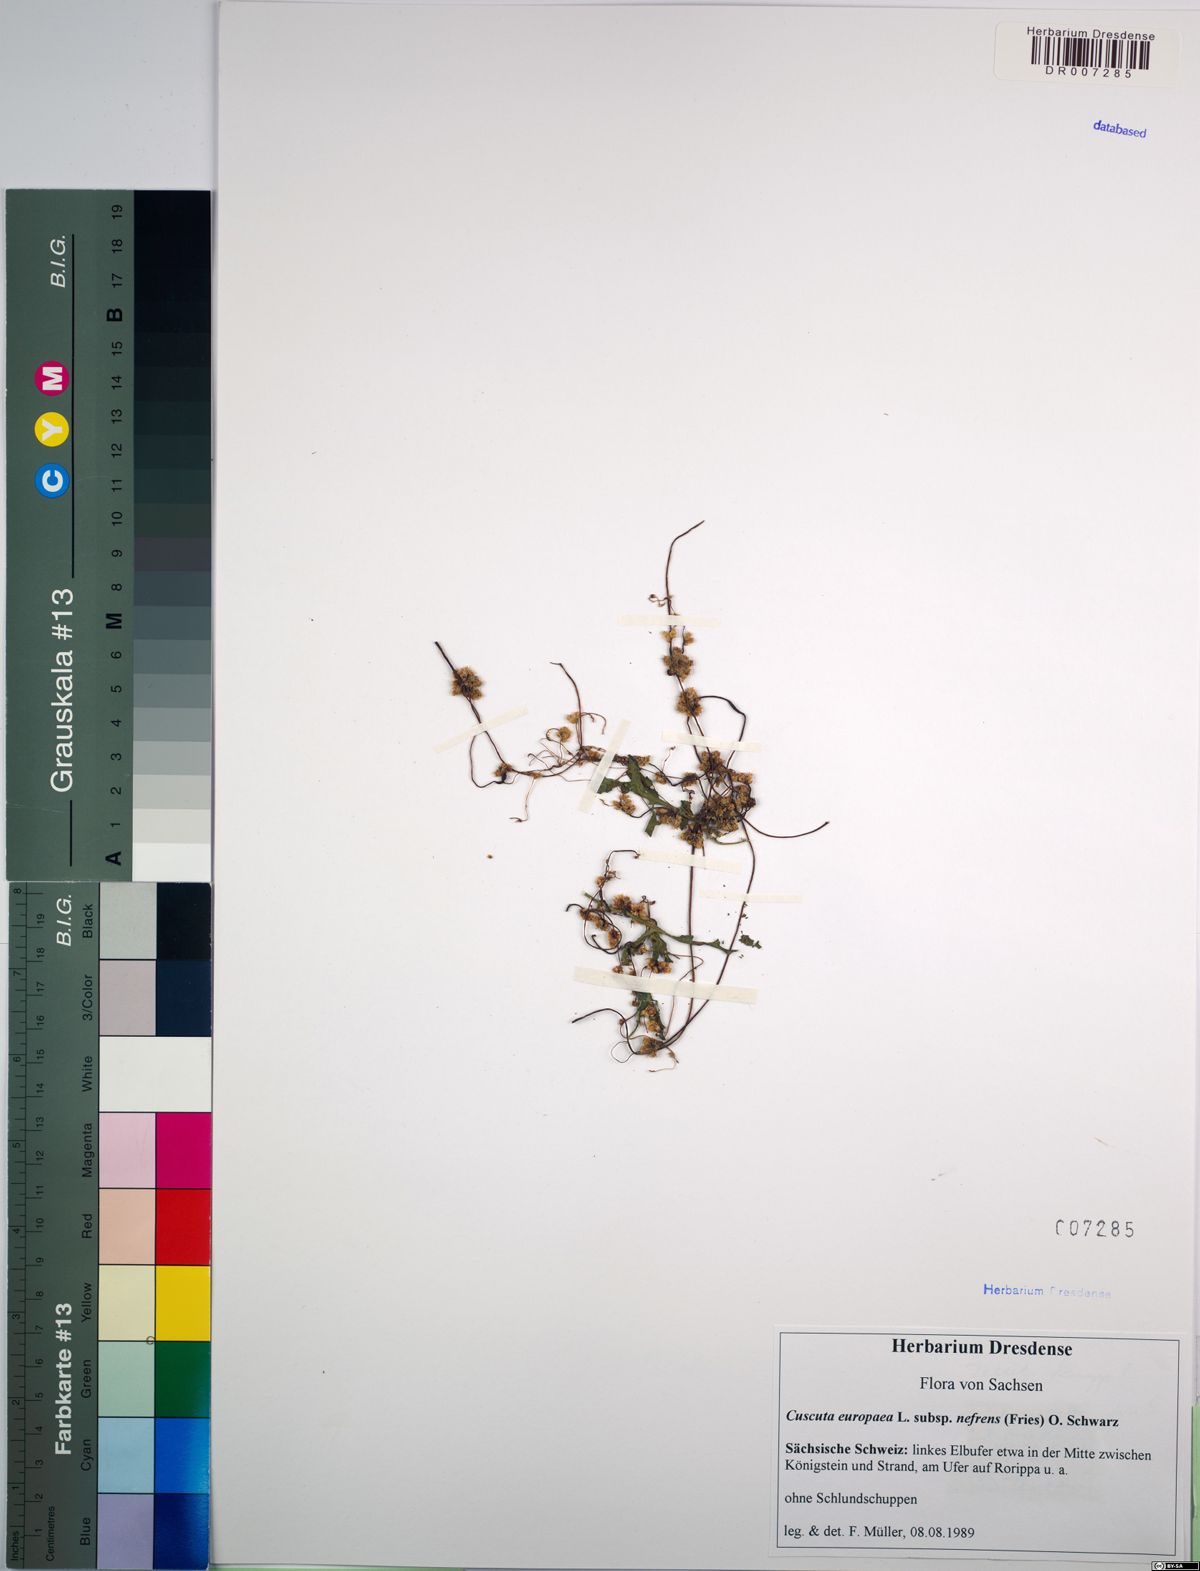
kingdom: Plantae
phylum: Tracheophyta
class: Magnoliopsida
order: Solanales
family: Convolvulaceae
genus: Cuscuta
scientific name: Cuscuta europaea
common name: Greater dodder
